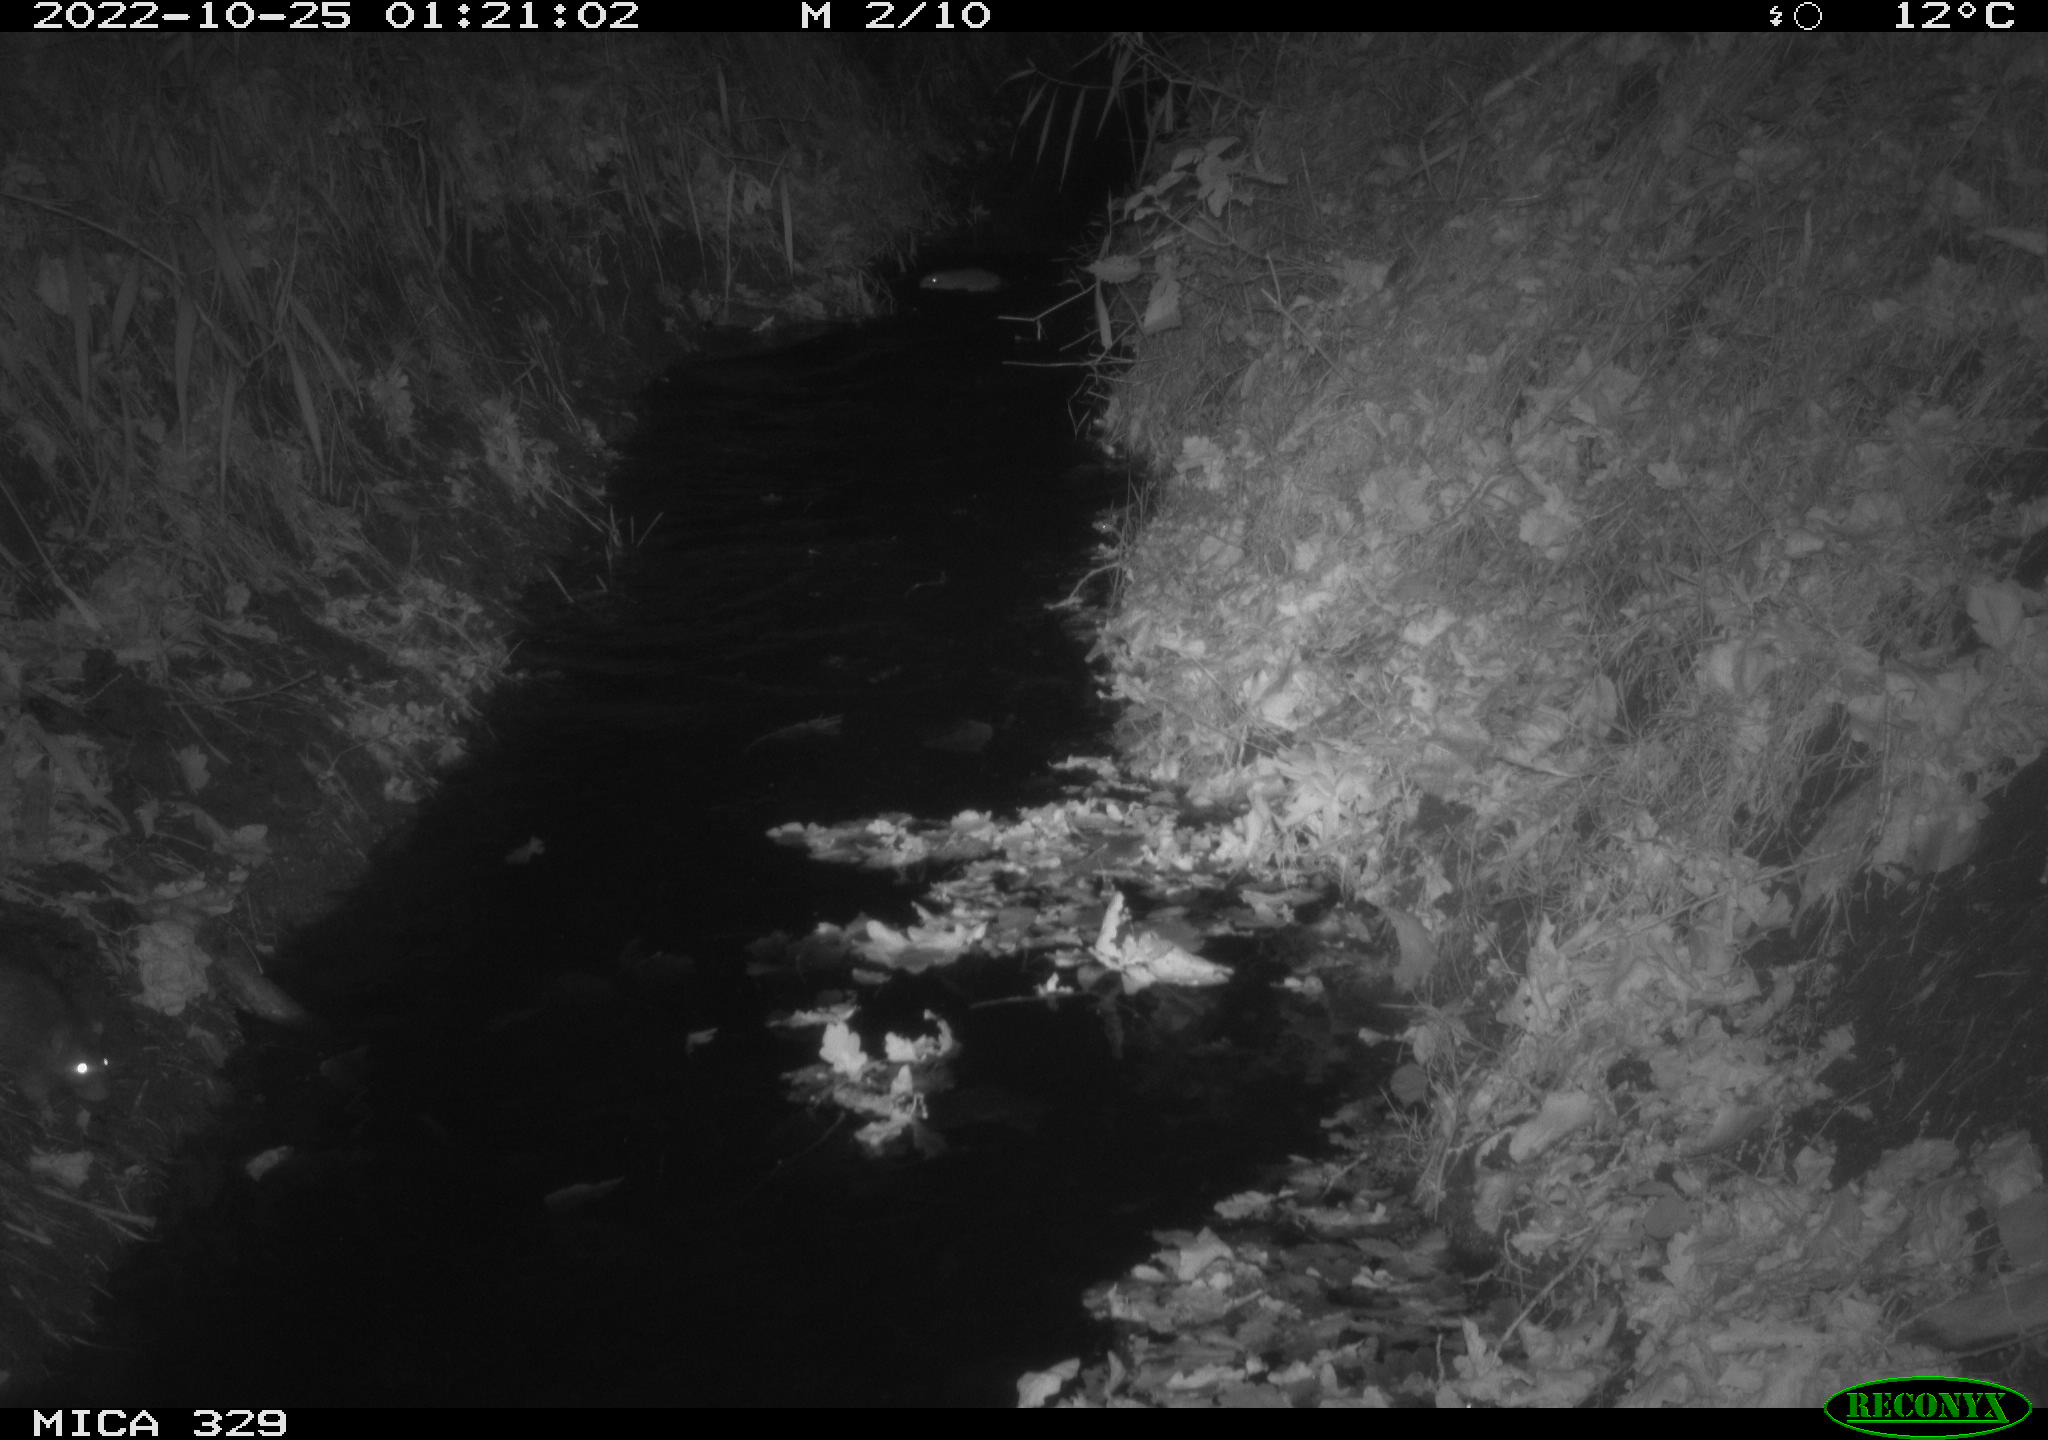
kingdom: Animalia
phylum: Chordata
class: Mammalia
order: Rodentia
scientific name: Rodentia
